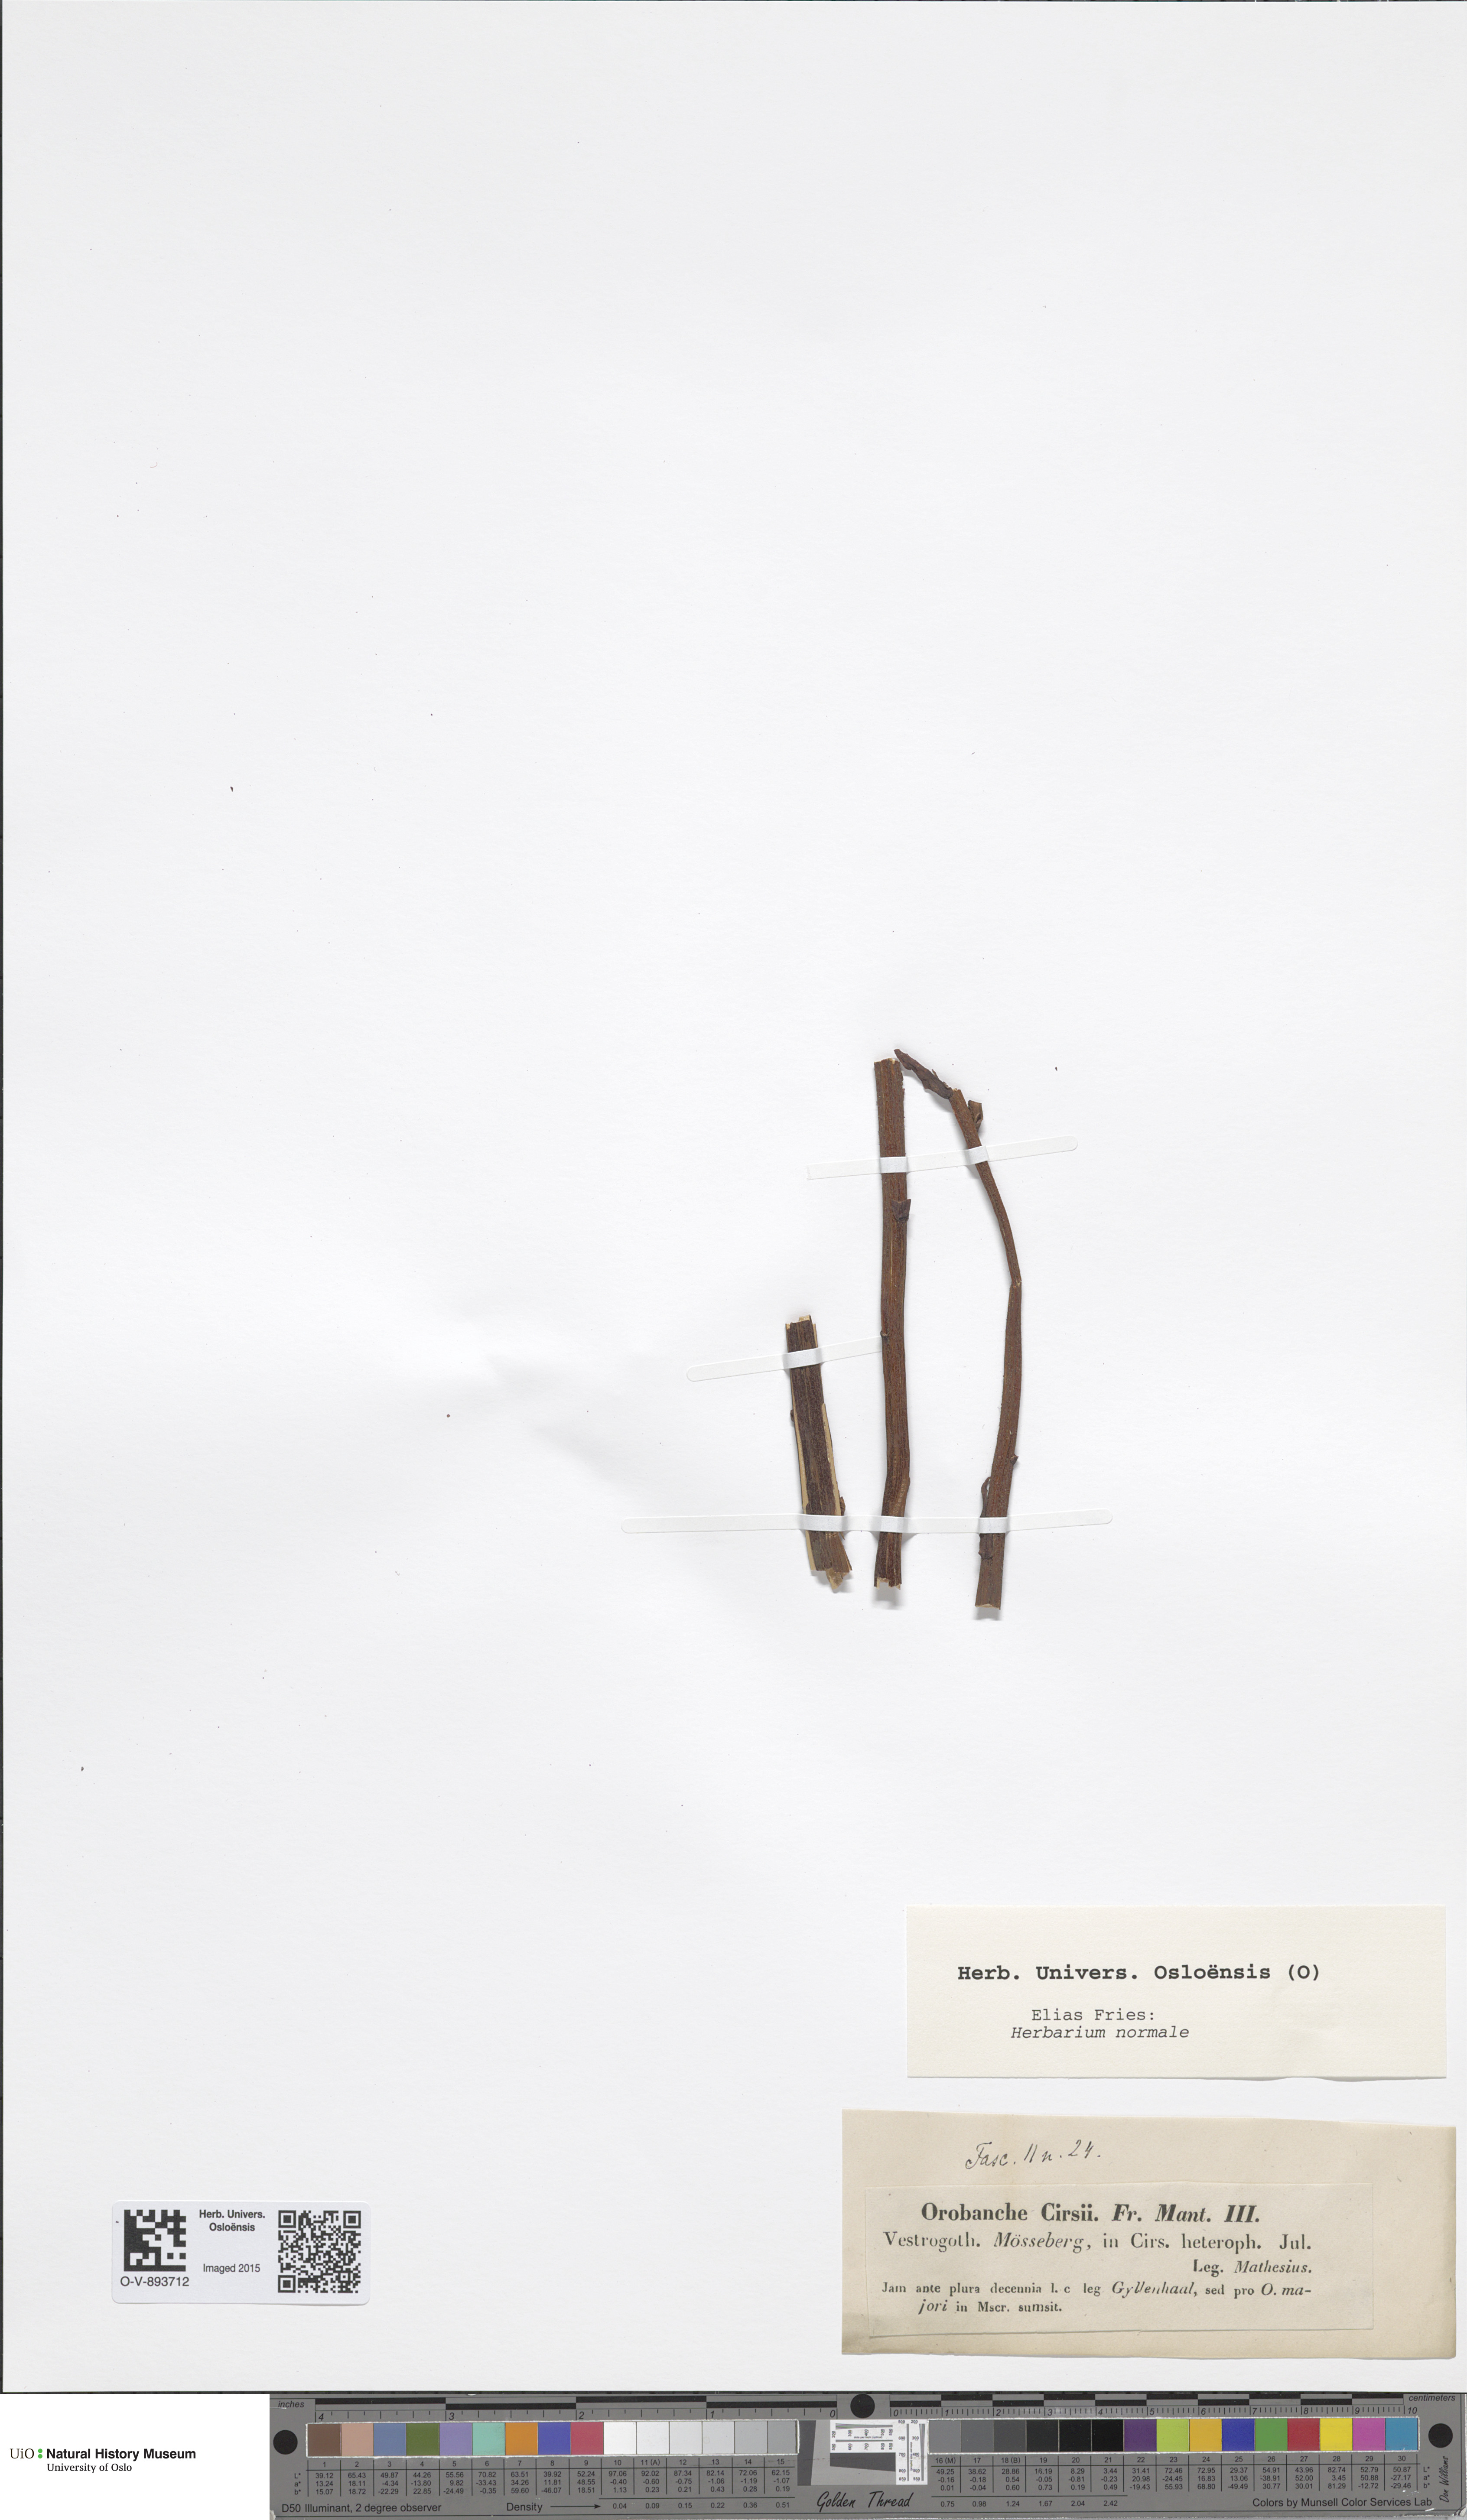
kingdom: Plantae
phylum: Tracheophyta
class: Magnoliopsida
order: Lamiales
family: Orobanchaceae
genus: Orobanche
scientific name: Orobanche reticulata
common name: Thistle broomrape
